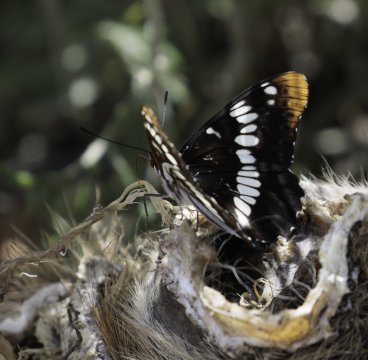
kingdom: Animalia
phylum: Arthropoda
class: Insecta
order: Lepidoptera
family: Nymphalidae
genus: Limenitis
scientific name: Limenitis lorquini
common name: Lorquin's Admiral
